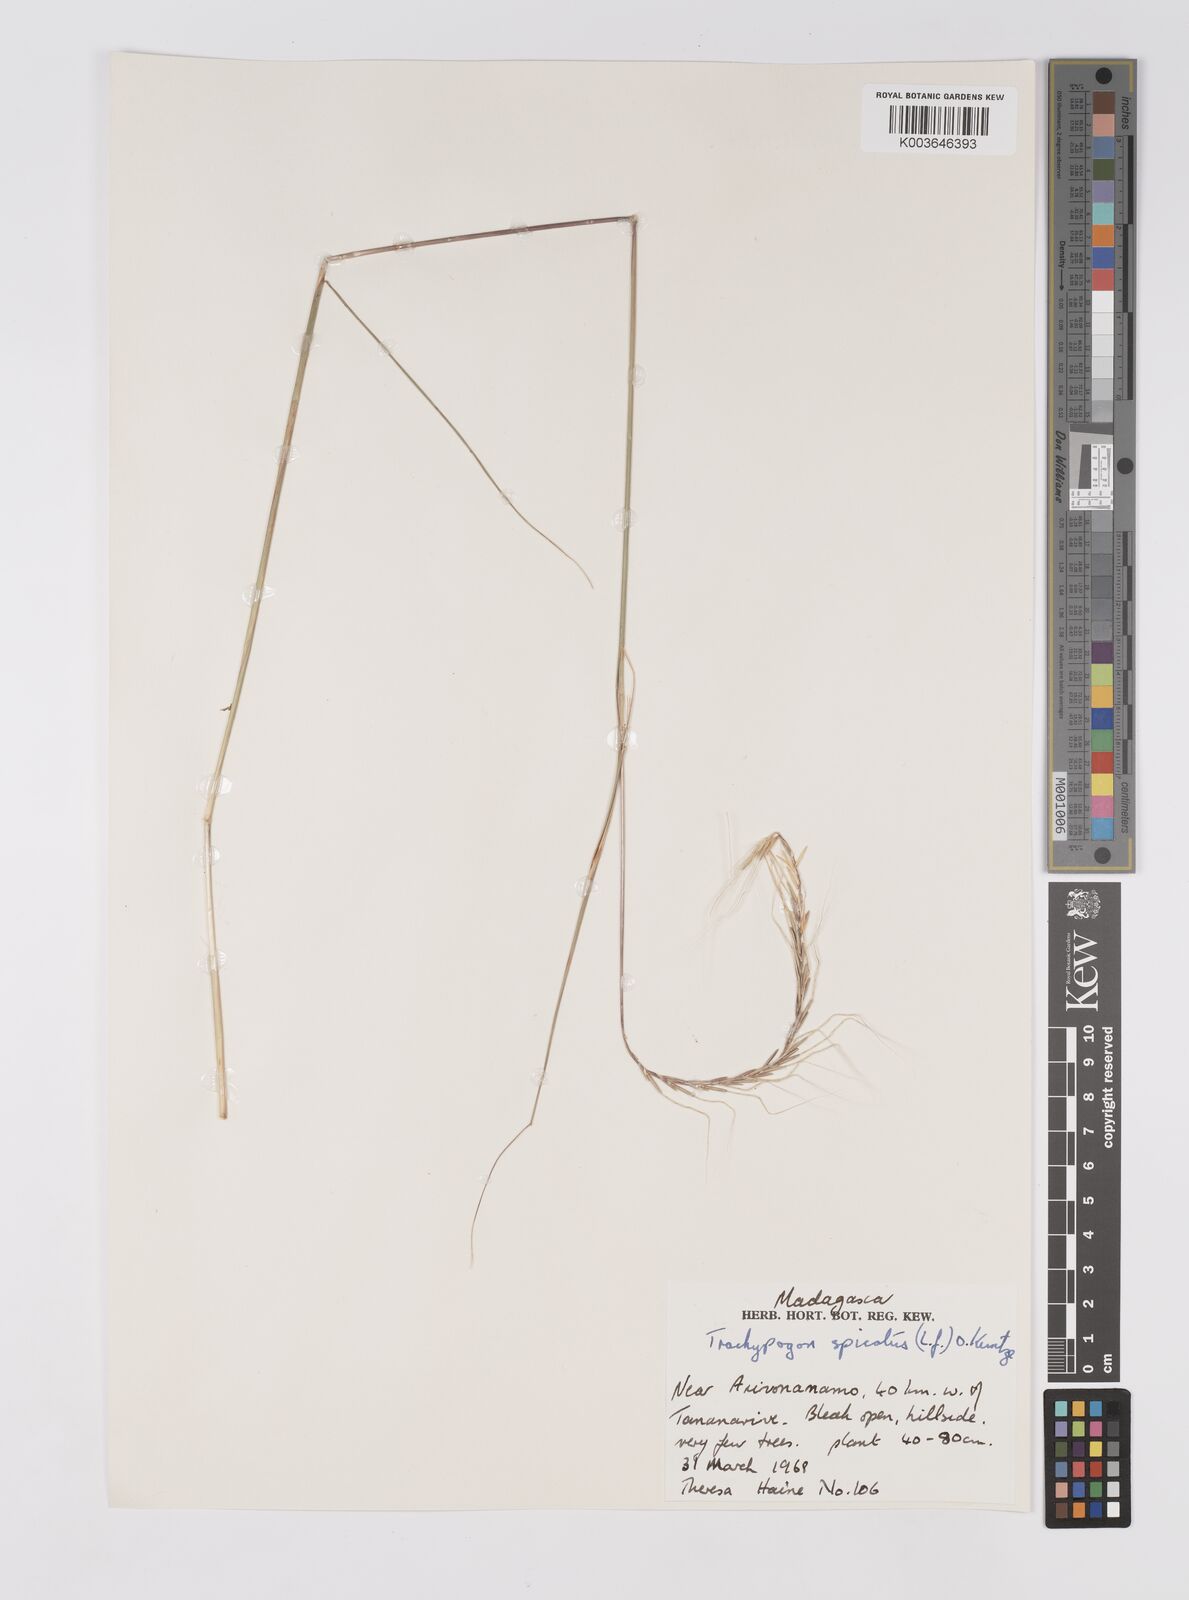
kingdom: Plantae
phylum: Tracheophyta
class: Liliopsida
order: Poales
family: Poaceae
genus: Trachypogon
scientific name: Trachypogon spicatus
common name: Crinkle-awn
